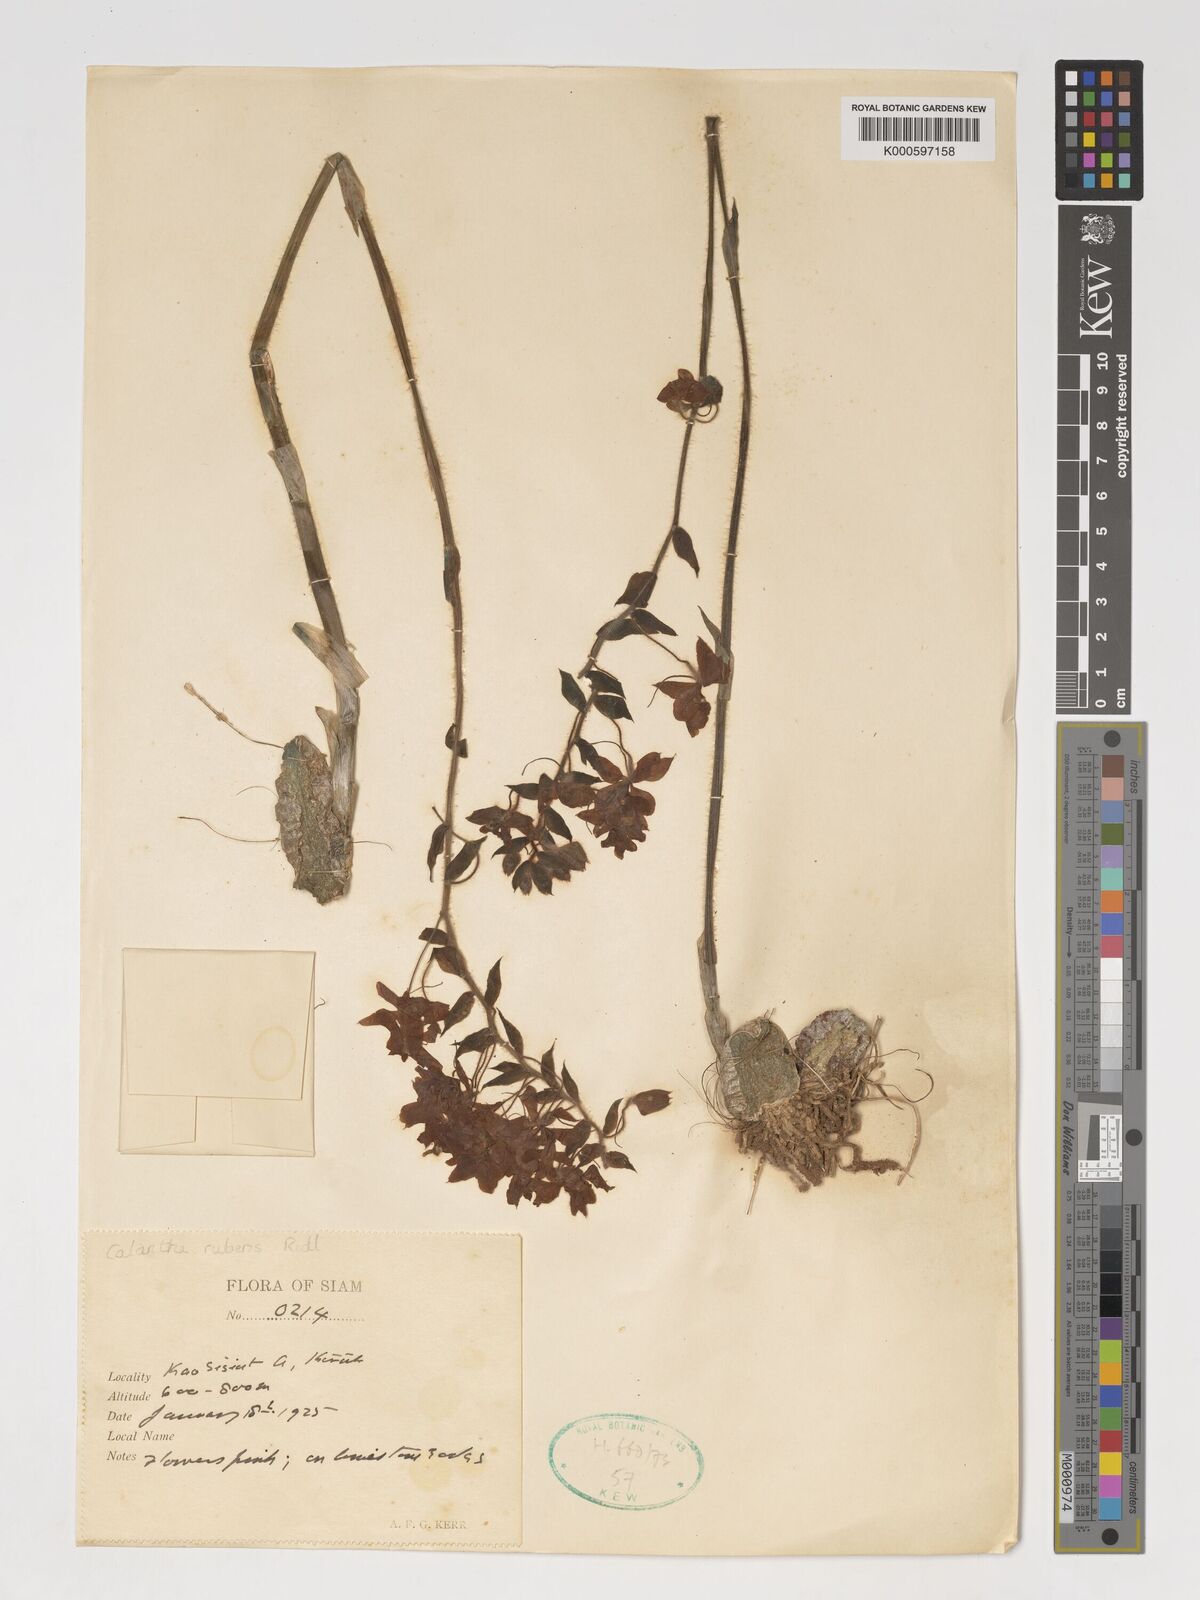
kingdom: Plantae
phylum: Tracheophyta
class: Liliopsida
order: Asparagales
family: Orchidaceae
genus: Calanthe
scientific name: Calanthe rubens
